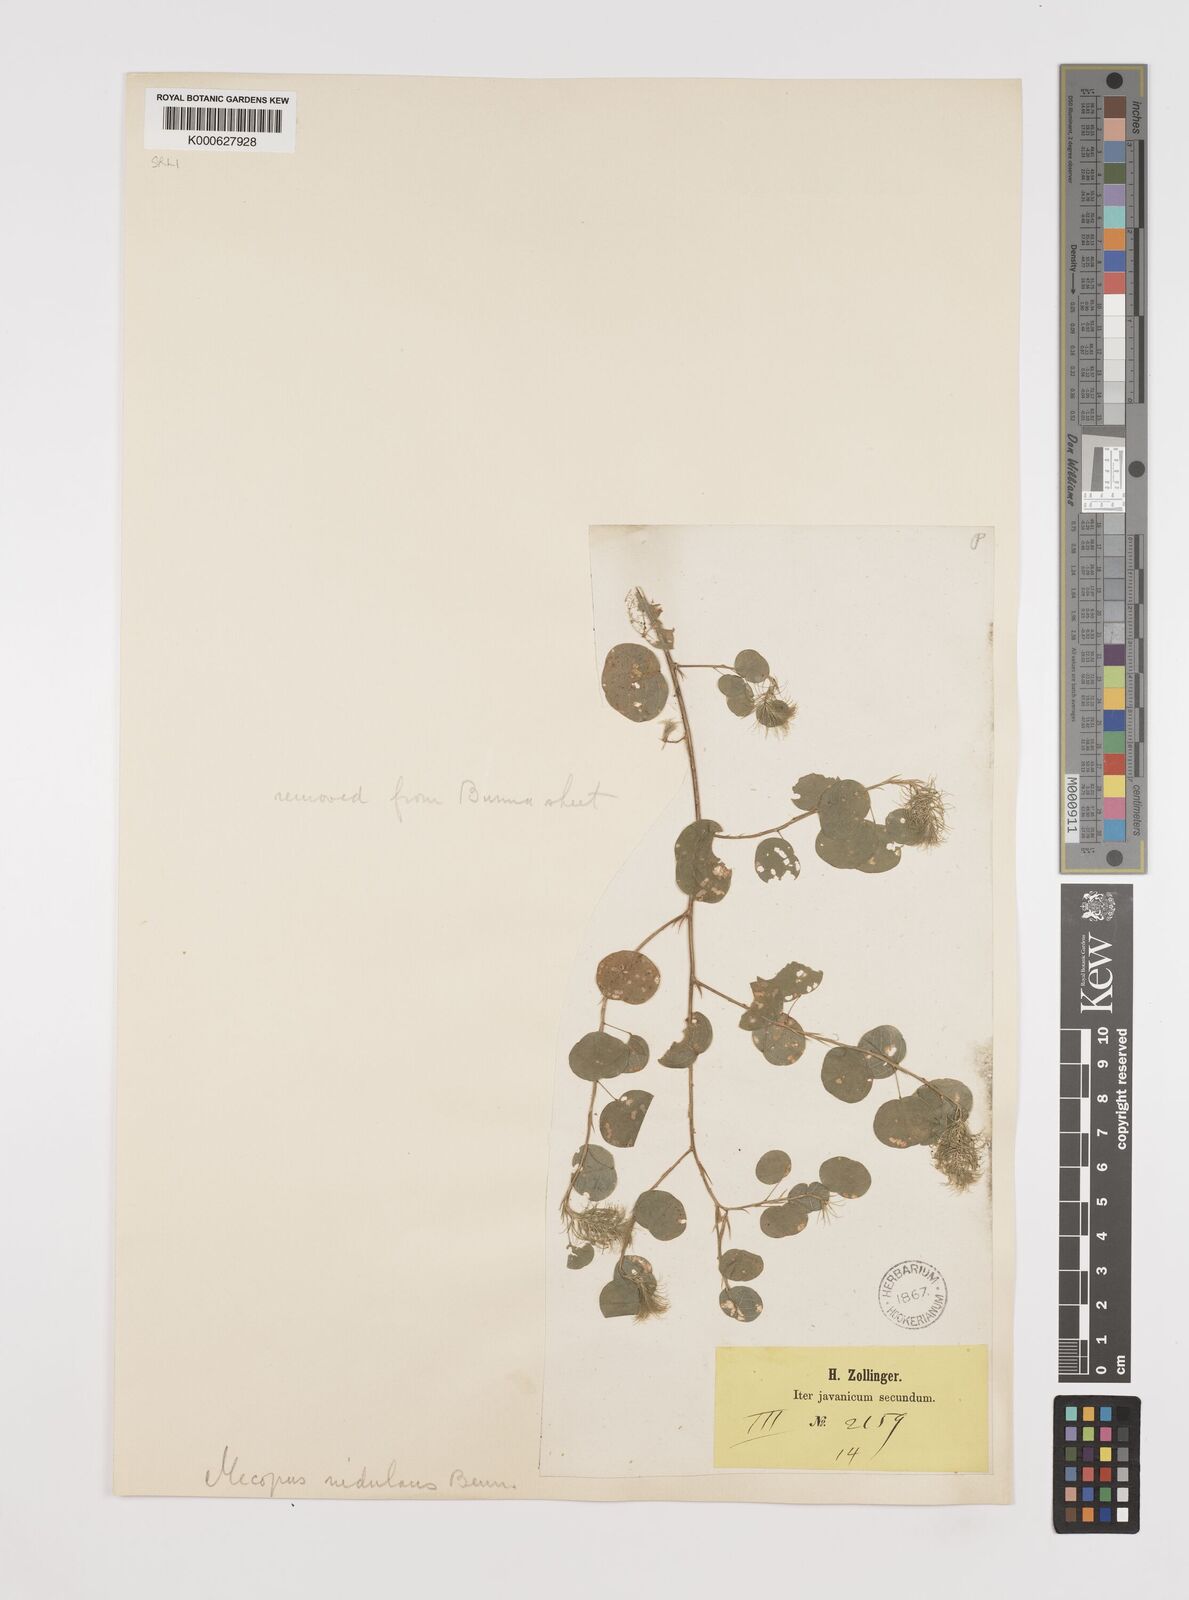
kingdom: Plantae
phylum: Tracheophyta
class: Magnoliopsida
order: Fabales
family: Fabaceae
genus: Mecopus
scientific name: Mecopus nidulans
